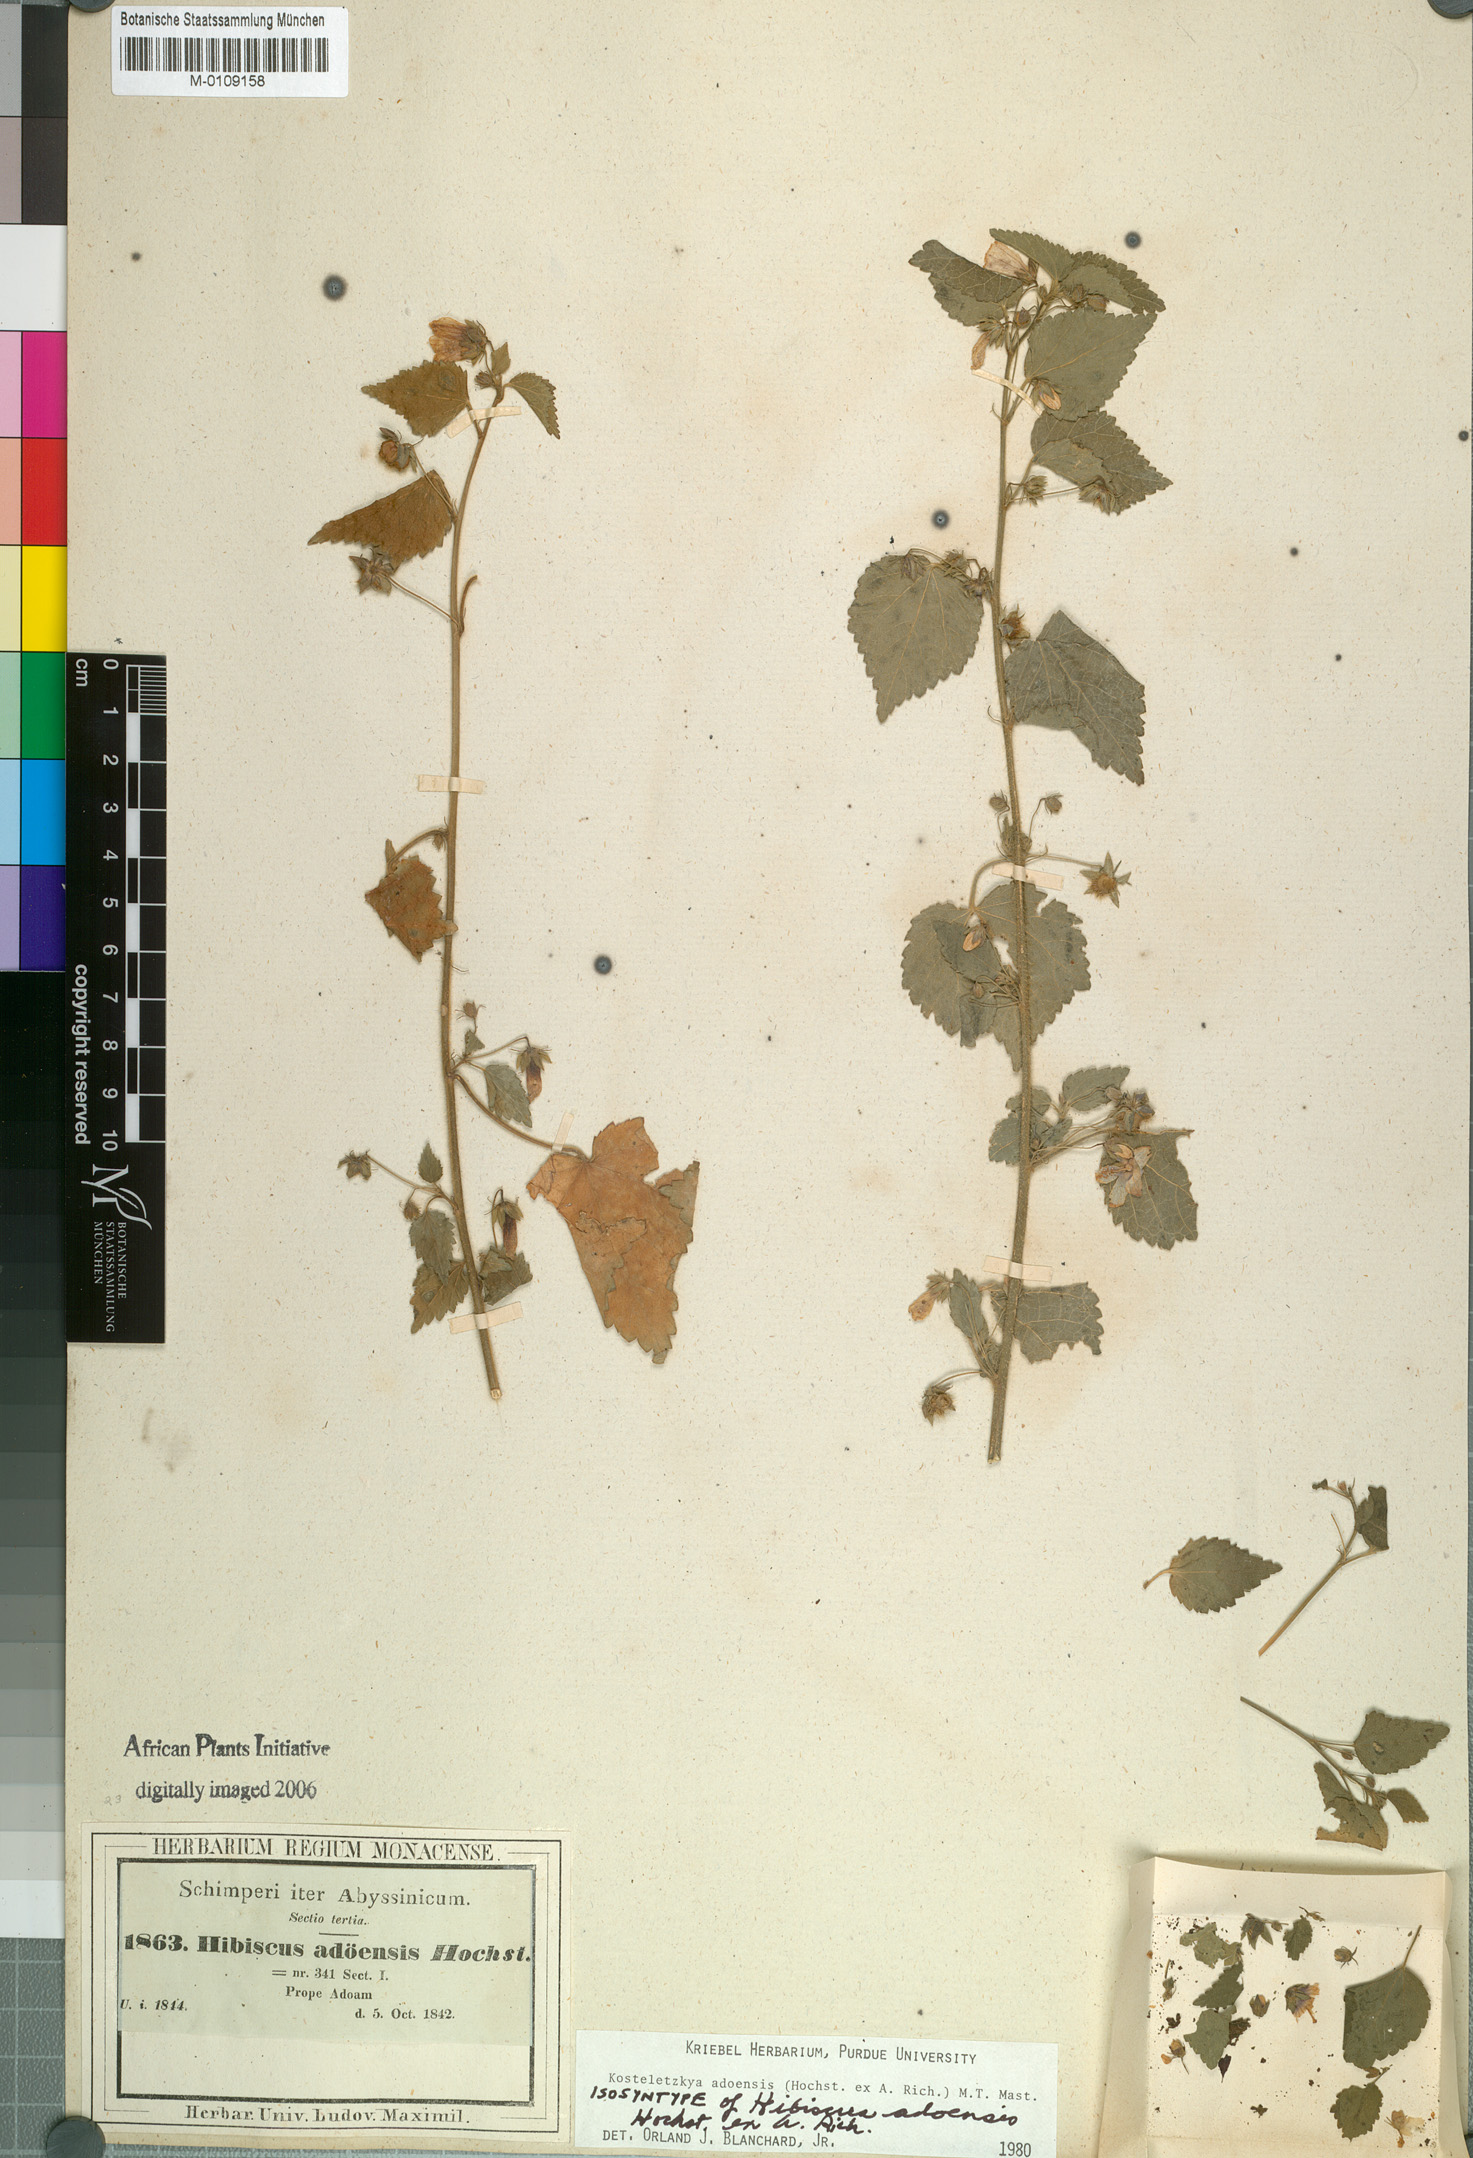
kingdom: Plantae
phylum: Tracheophyta
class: Magnoliopsida
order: Malvales
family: Malvaceae
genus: Kosteletzkya
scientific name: Kosteletzkya adoensis
